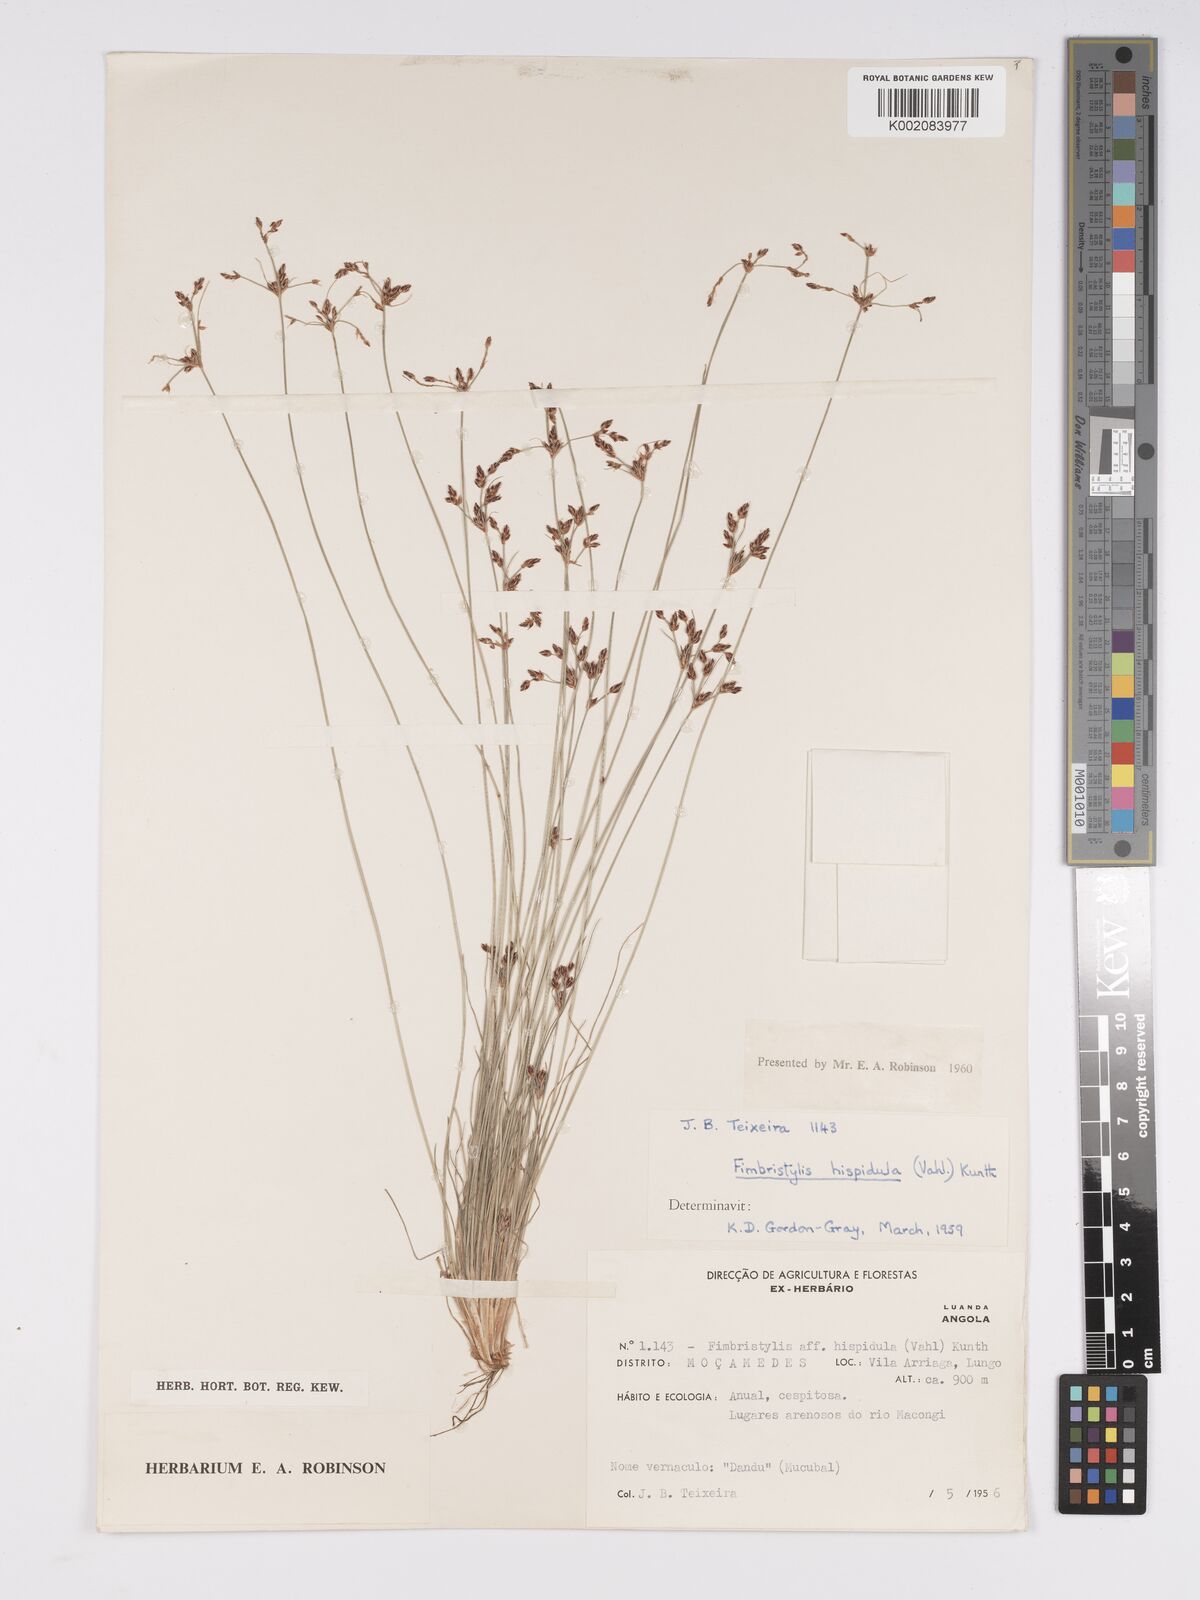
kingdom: Plantae
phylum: Tracheophyta
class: Liliopsida
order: Poales
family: Cyperaceae
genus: Bulbostylis
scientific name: Bulbostylis hispidula
